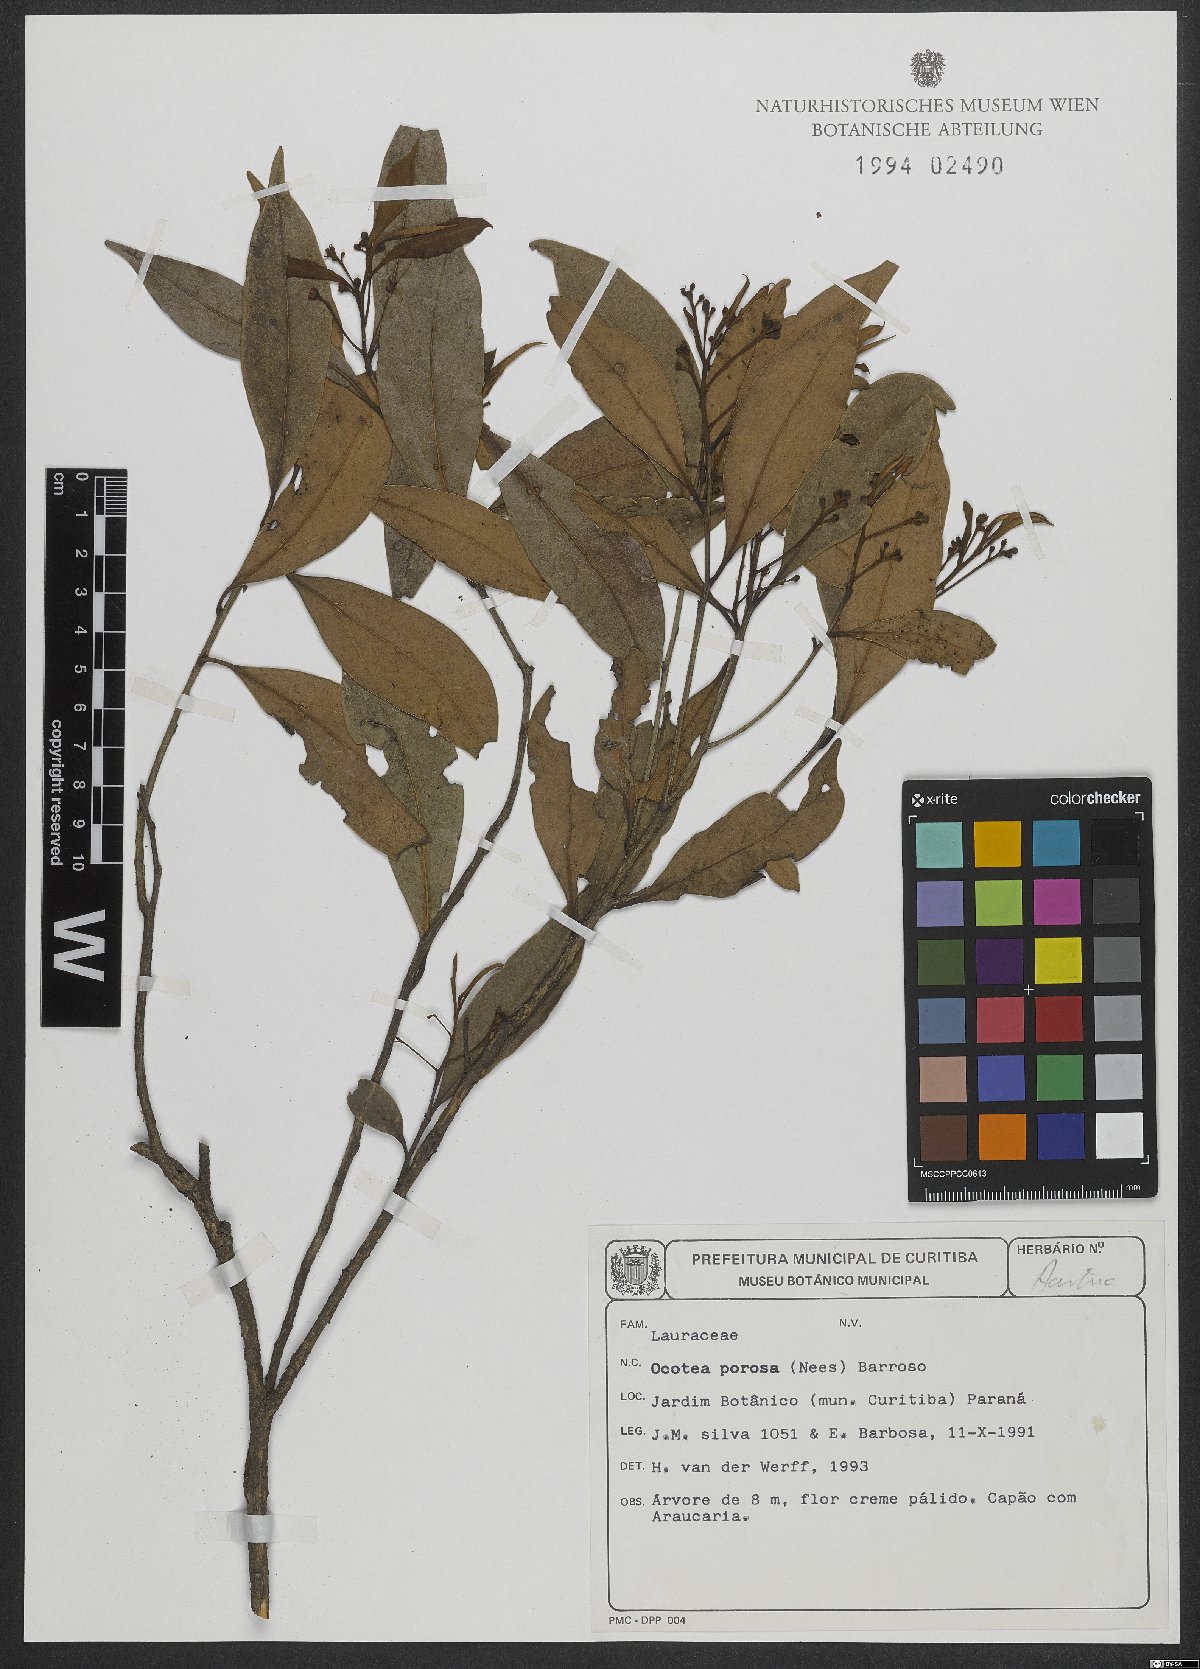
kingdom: Plantae
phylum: Tracheophyta
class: Magnoliopsida
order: Laurales
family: Lauraceae
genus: Ocotea
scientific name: Ocotea porosa
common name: Brazilian-walnut
